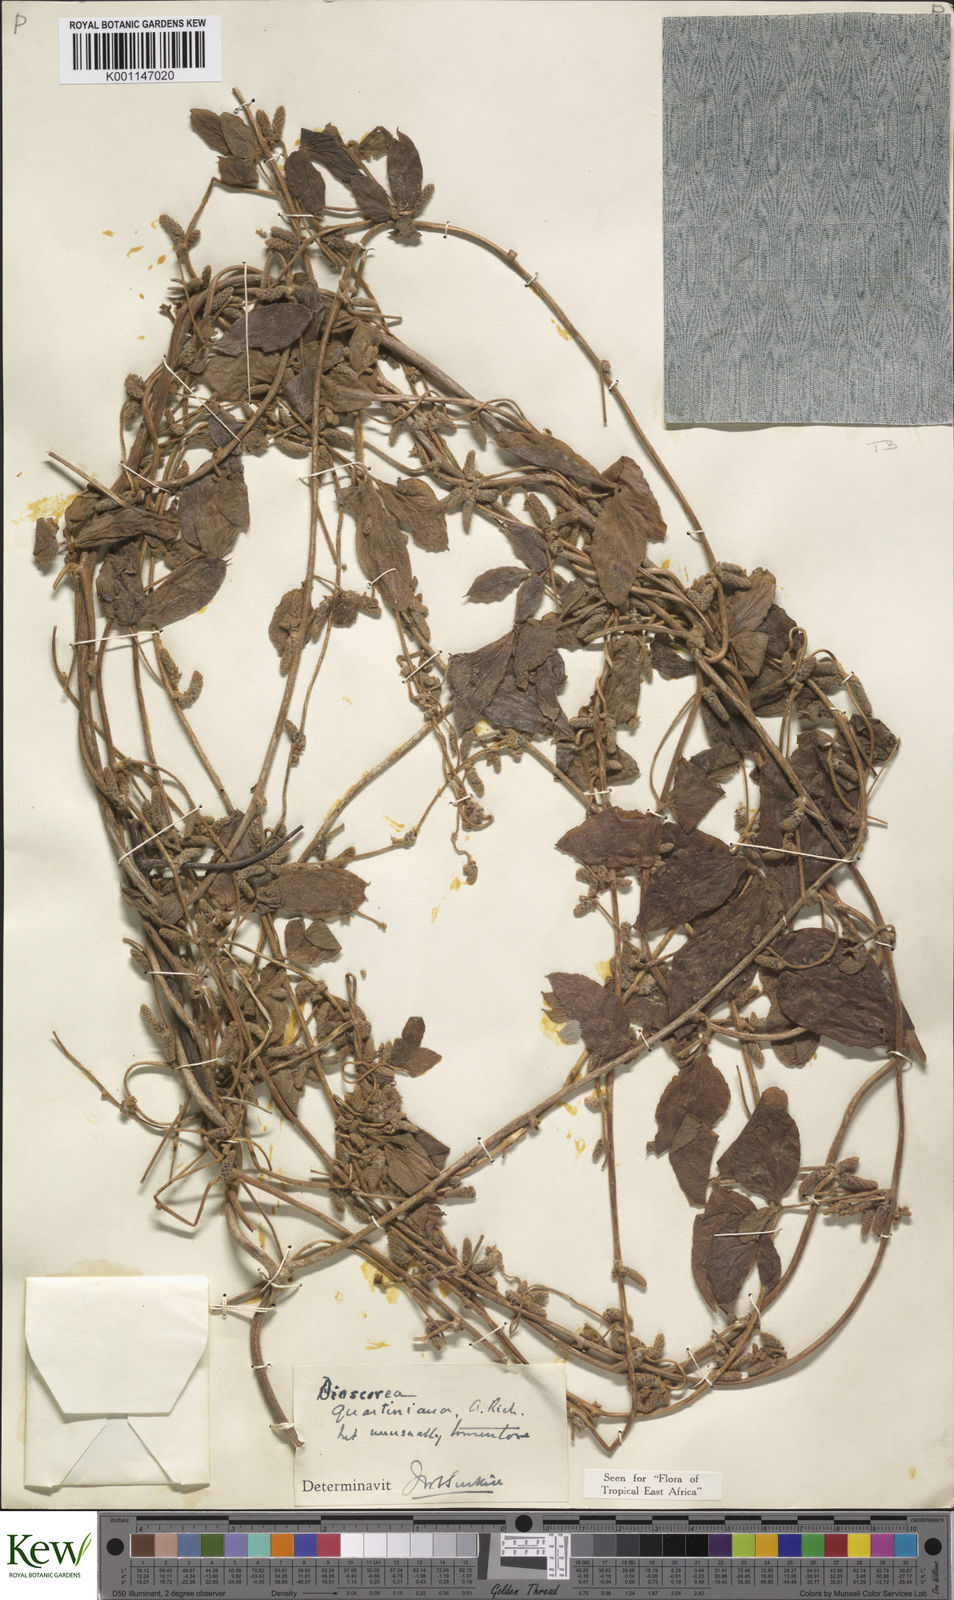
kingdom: Plantae
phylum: Tracheophyta
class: Liliopsida
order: Dioscoreales
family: Dioscoreaceae
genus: Dioscorea
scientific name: Dioscorea quartiniana
